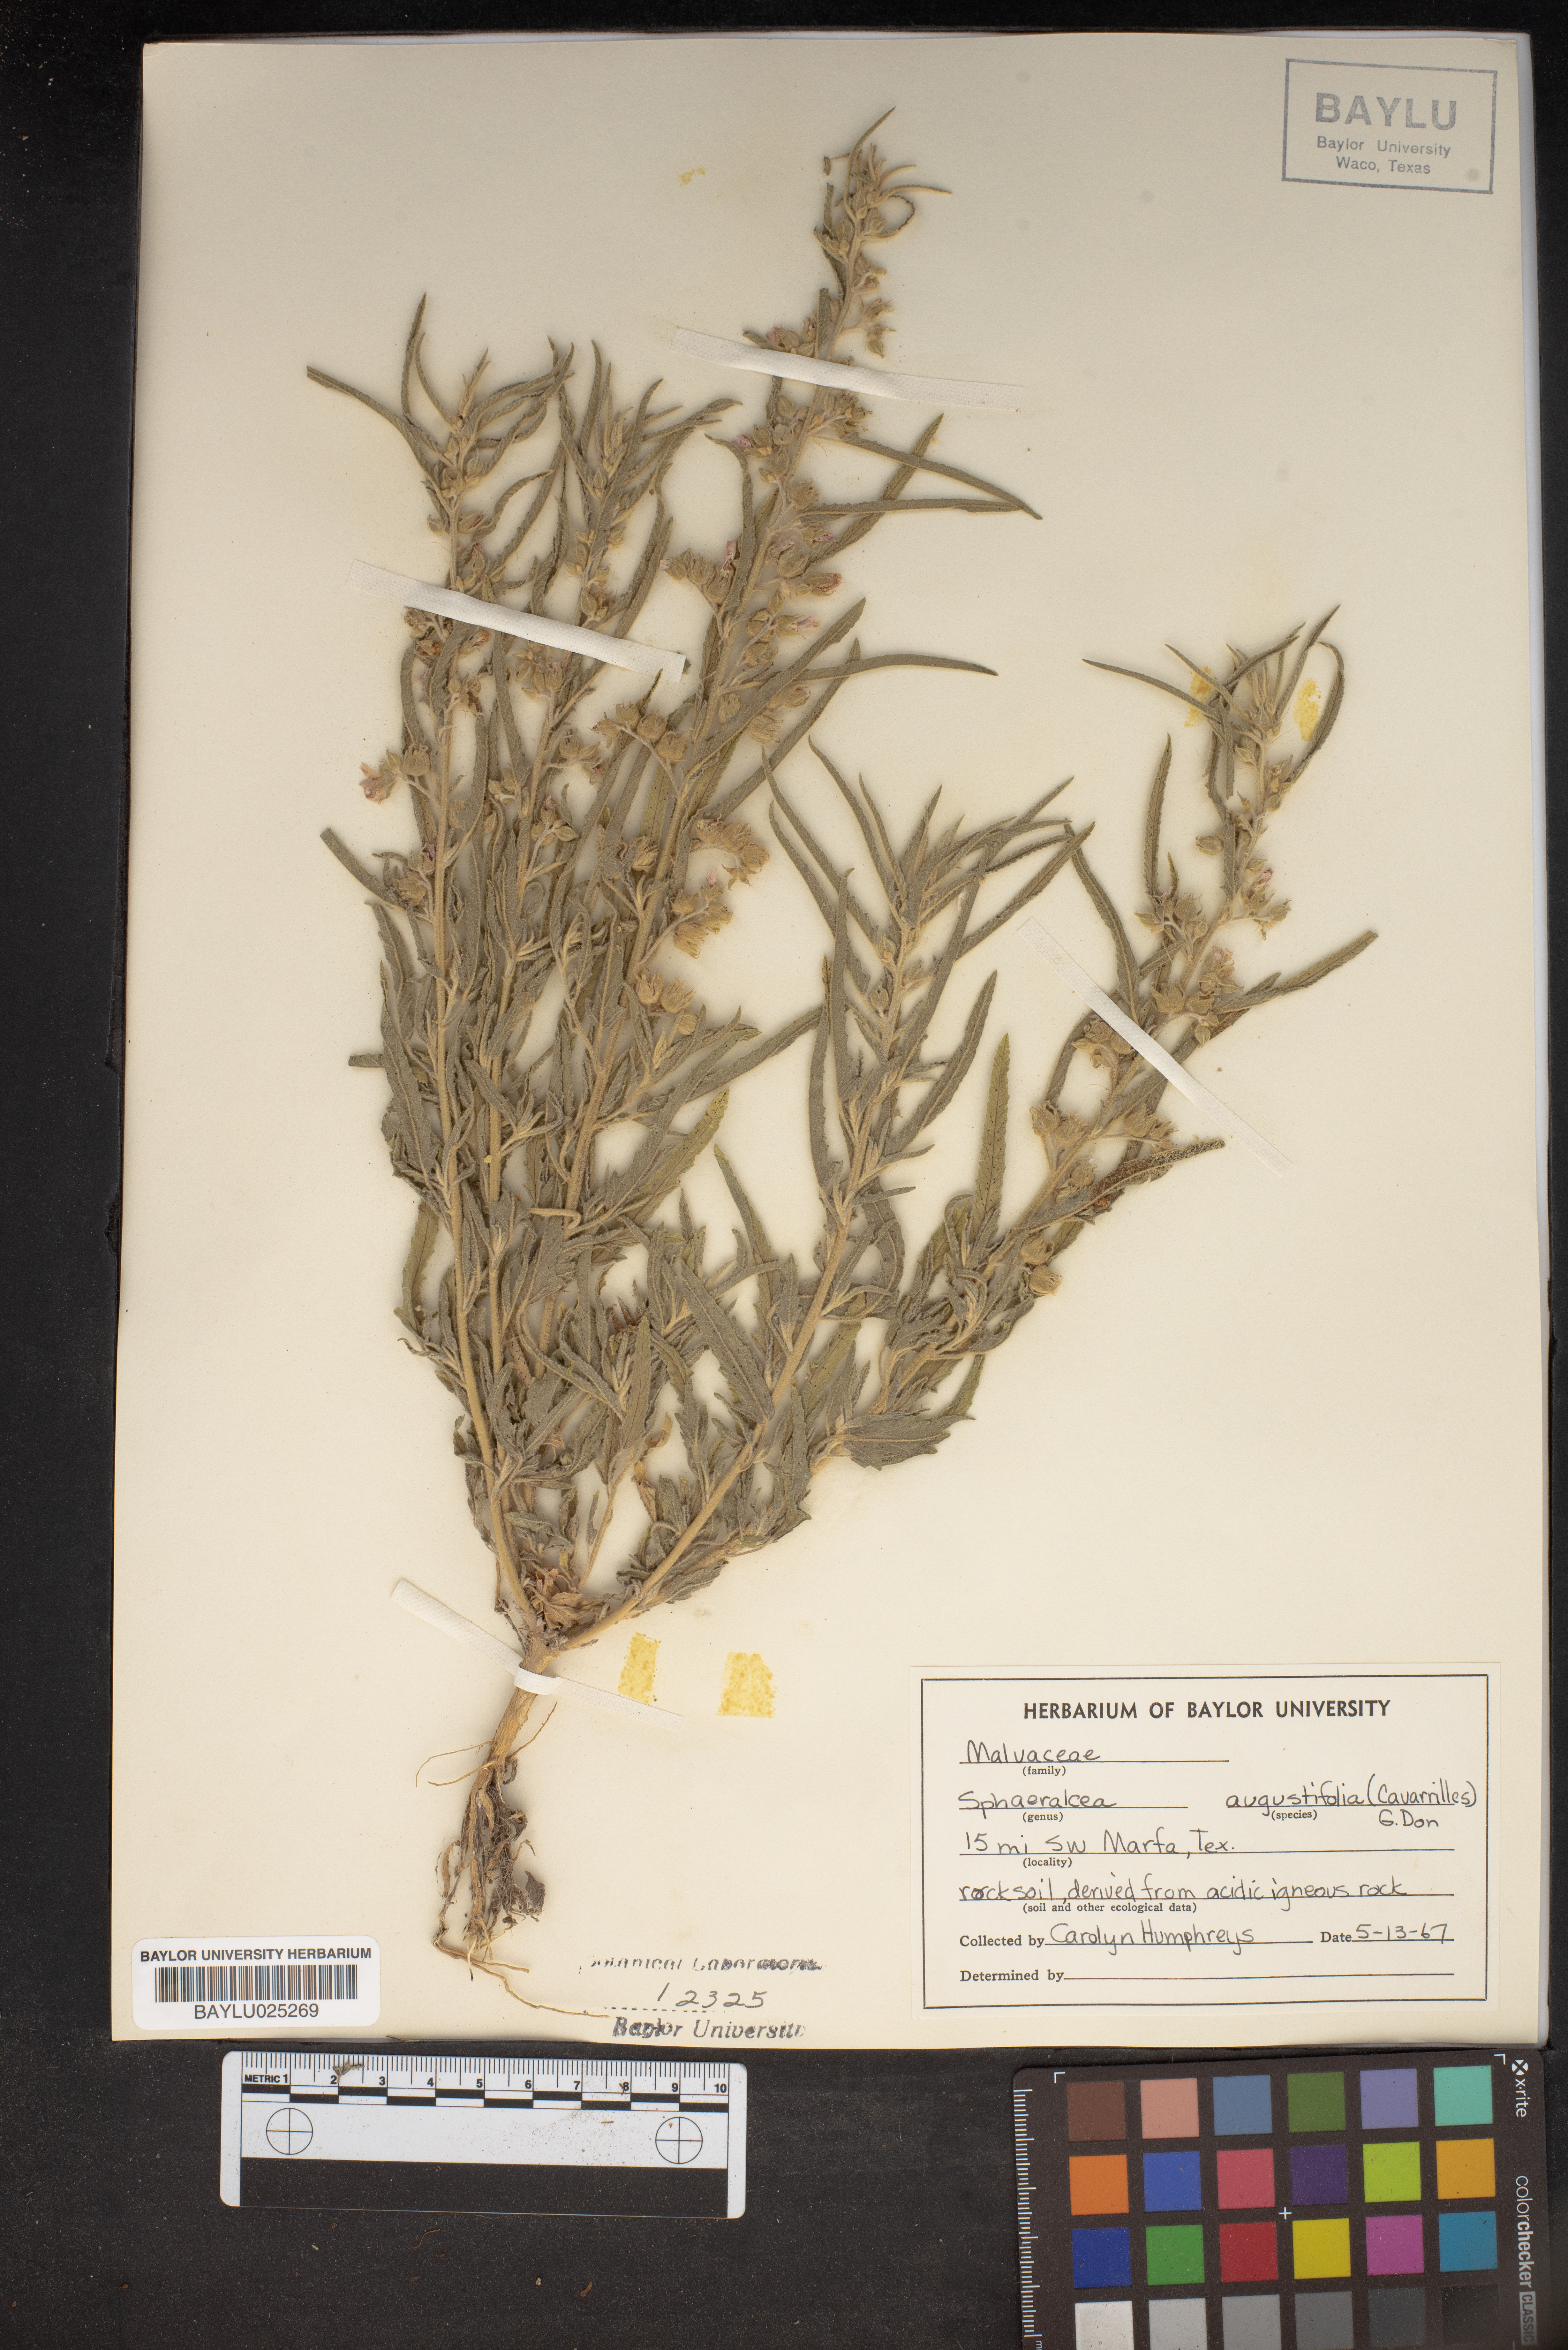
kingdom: Plantae
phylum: Tracheophyta
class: Magnoliopsida
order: Malvales
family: Malvaceae
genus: Sphaeralcea
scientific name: Sphaeralcea angustifolia
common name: Copper globe-mallow
